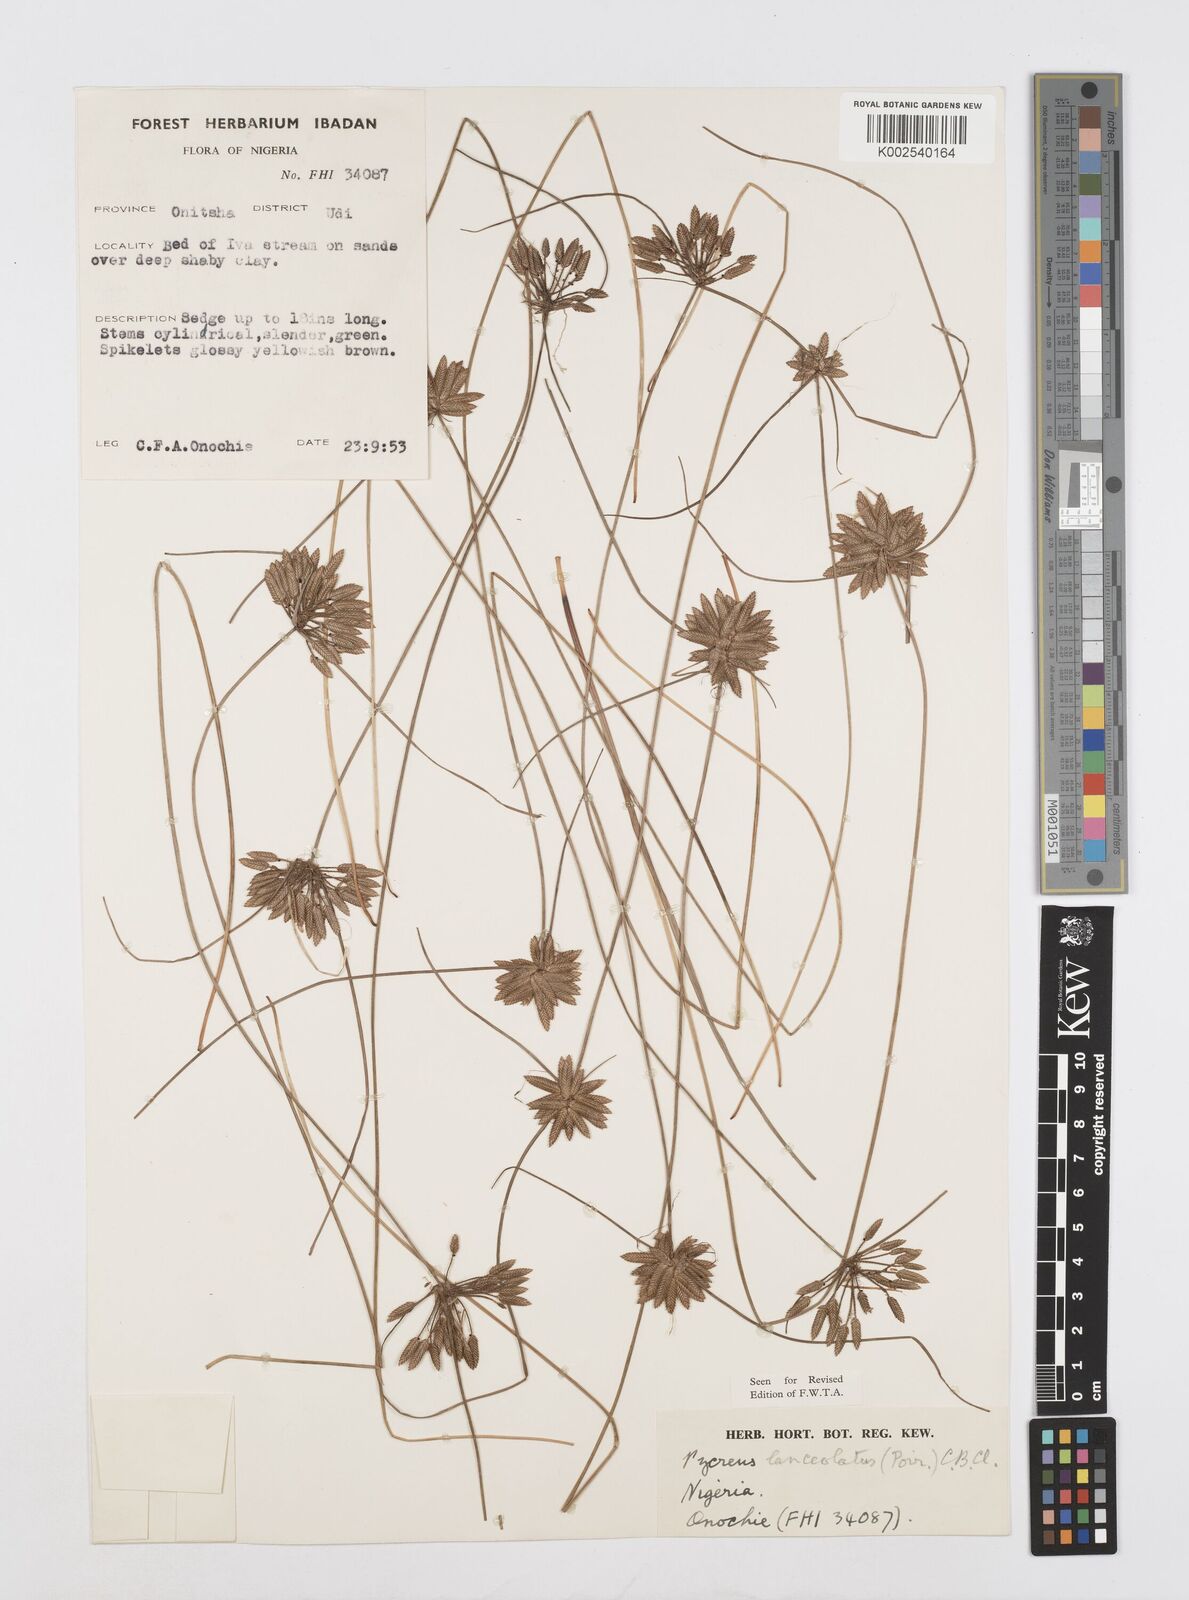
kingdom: Plantae
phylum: Tracheophyta
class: Liliopsida
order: Poales
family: Cyperaceae
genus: Cyperus
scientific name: Cyperus
